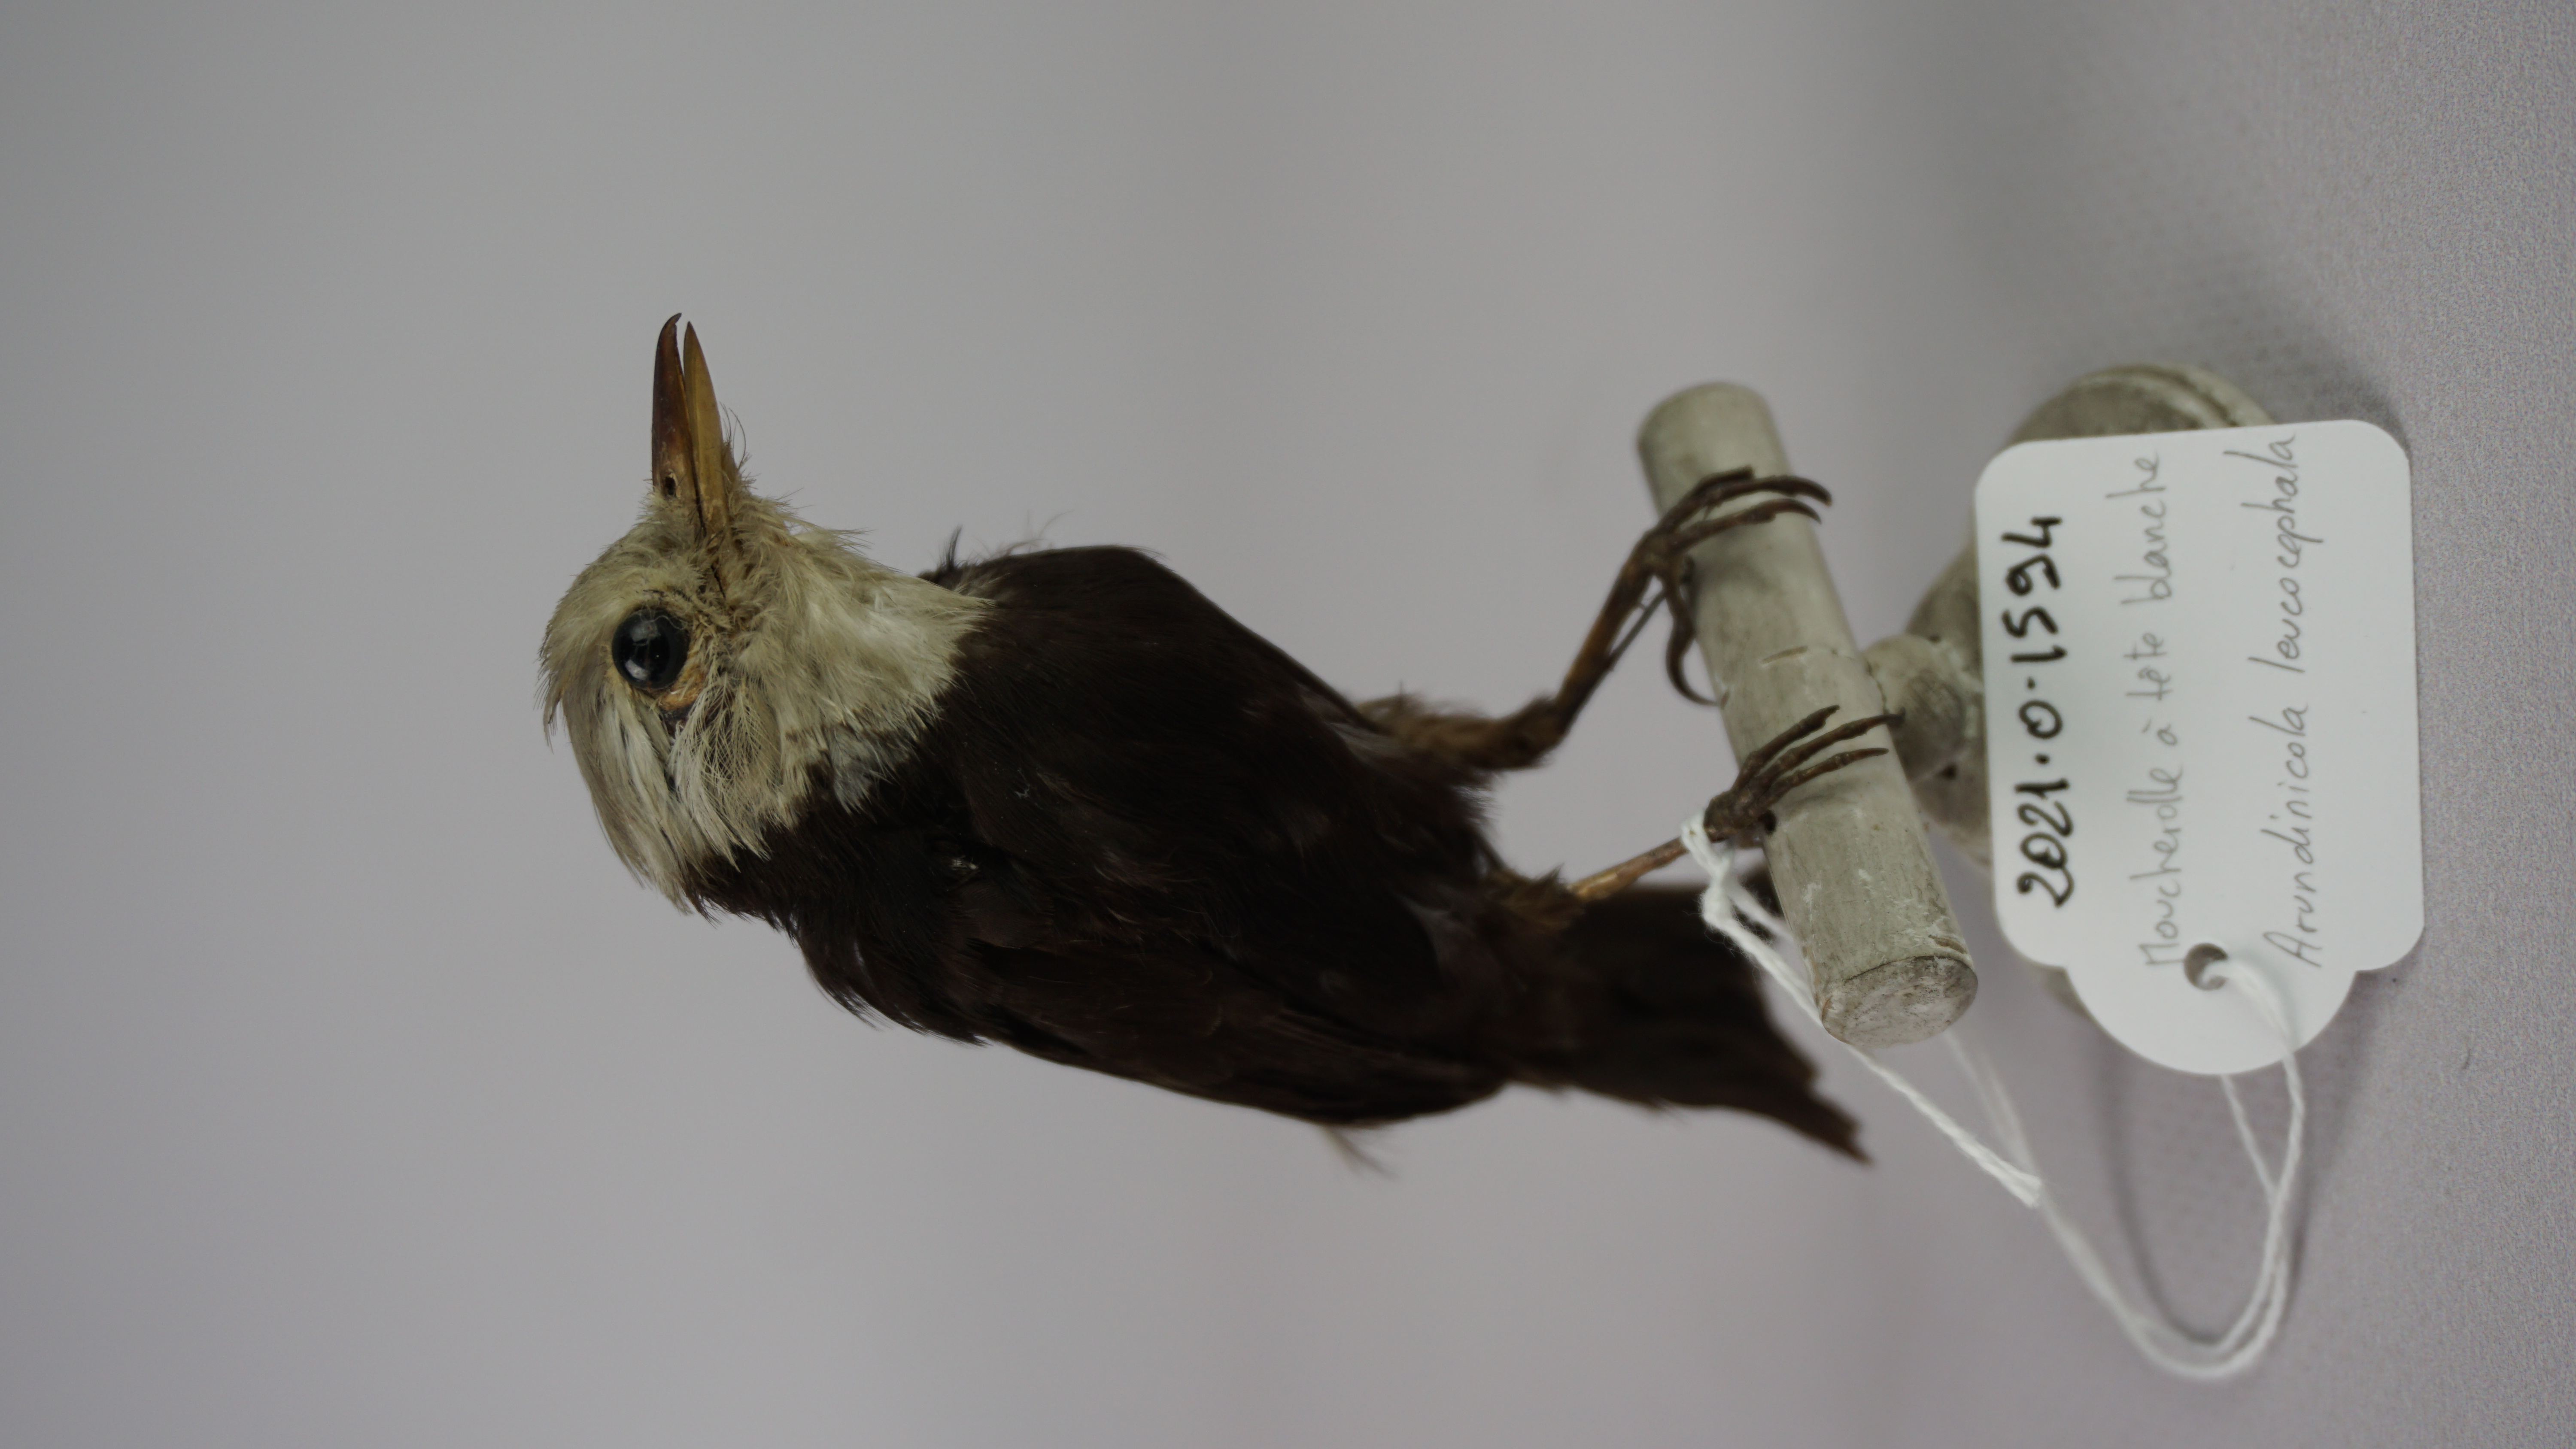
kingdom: Animalia
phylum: Chordata
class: Aves
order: Passeriformes
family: Tyrannidae
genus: Arundinicola
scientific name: Arundinicola leucocephala
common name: White-headed marsh tyrant
